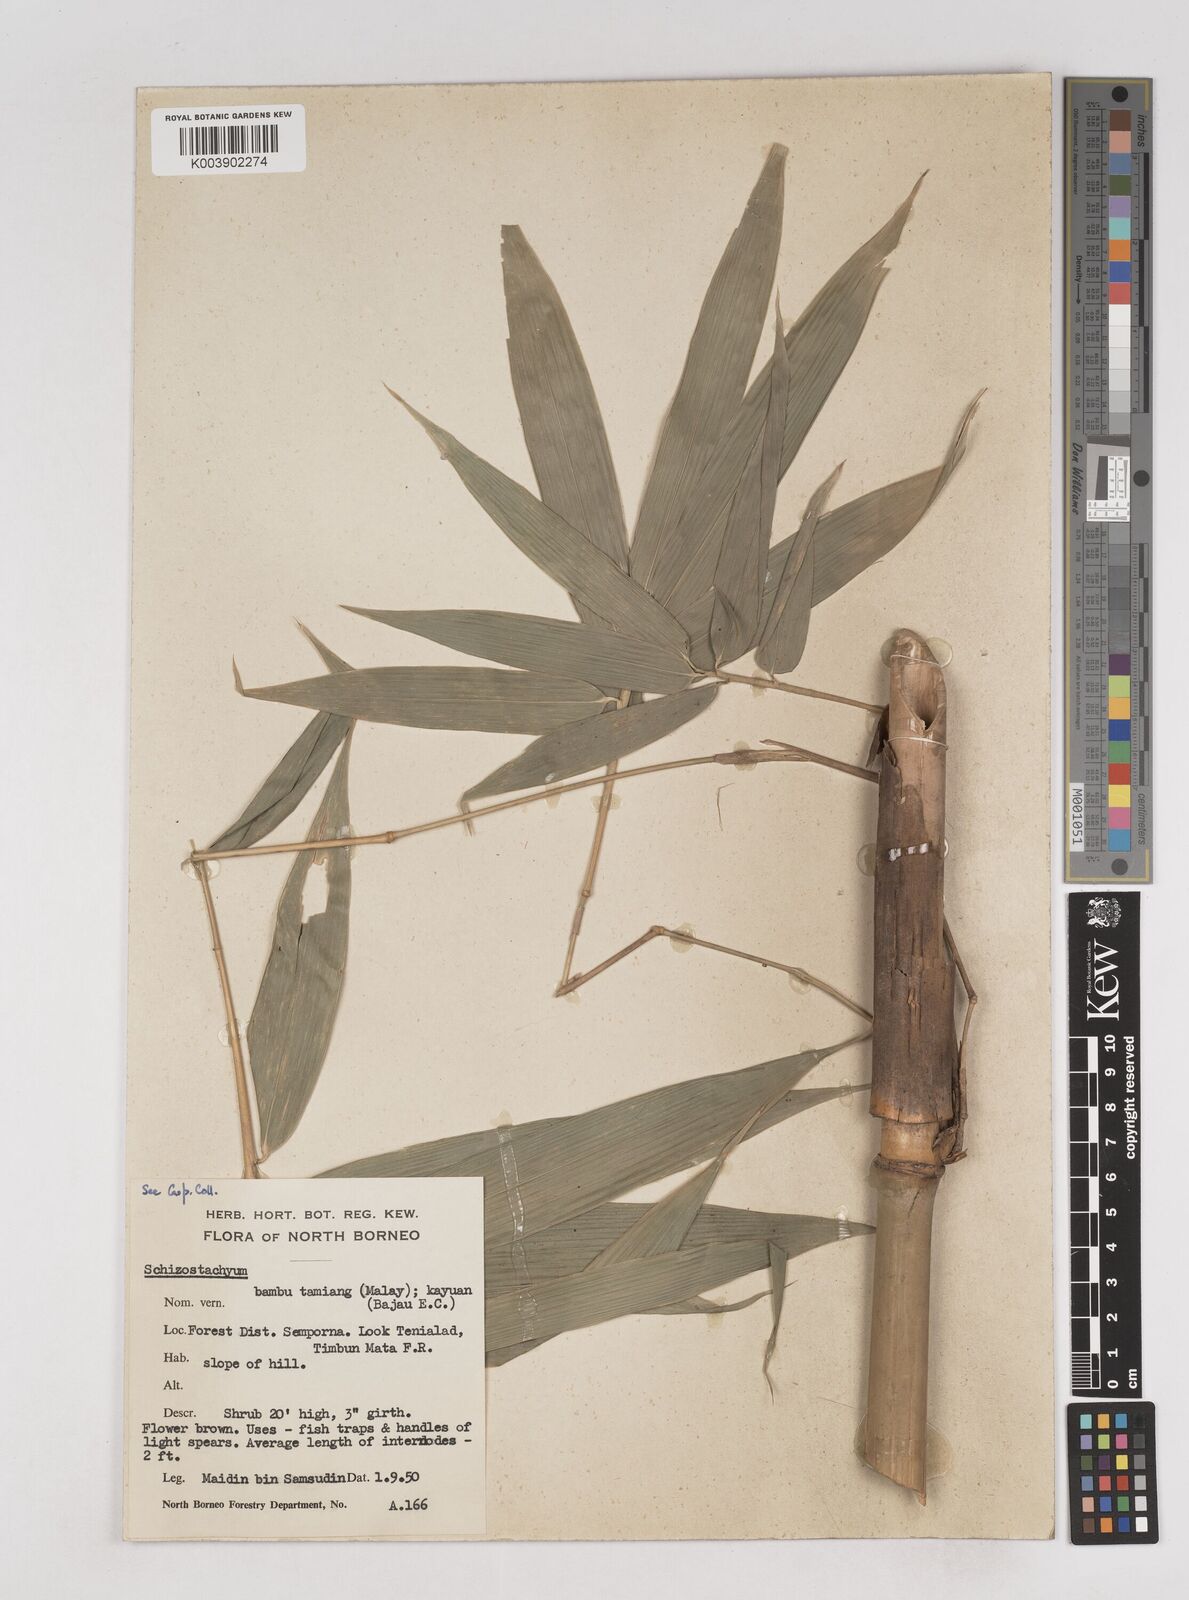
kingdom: Plantae
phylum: Tracheophyta
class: Liliopsida
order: Poales
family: Poaceae
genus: Schizostachyum
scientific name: Schizostachyum lima
